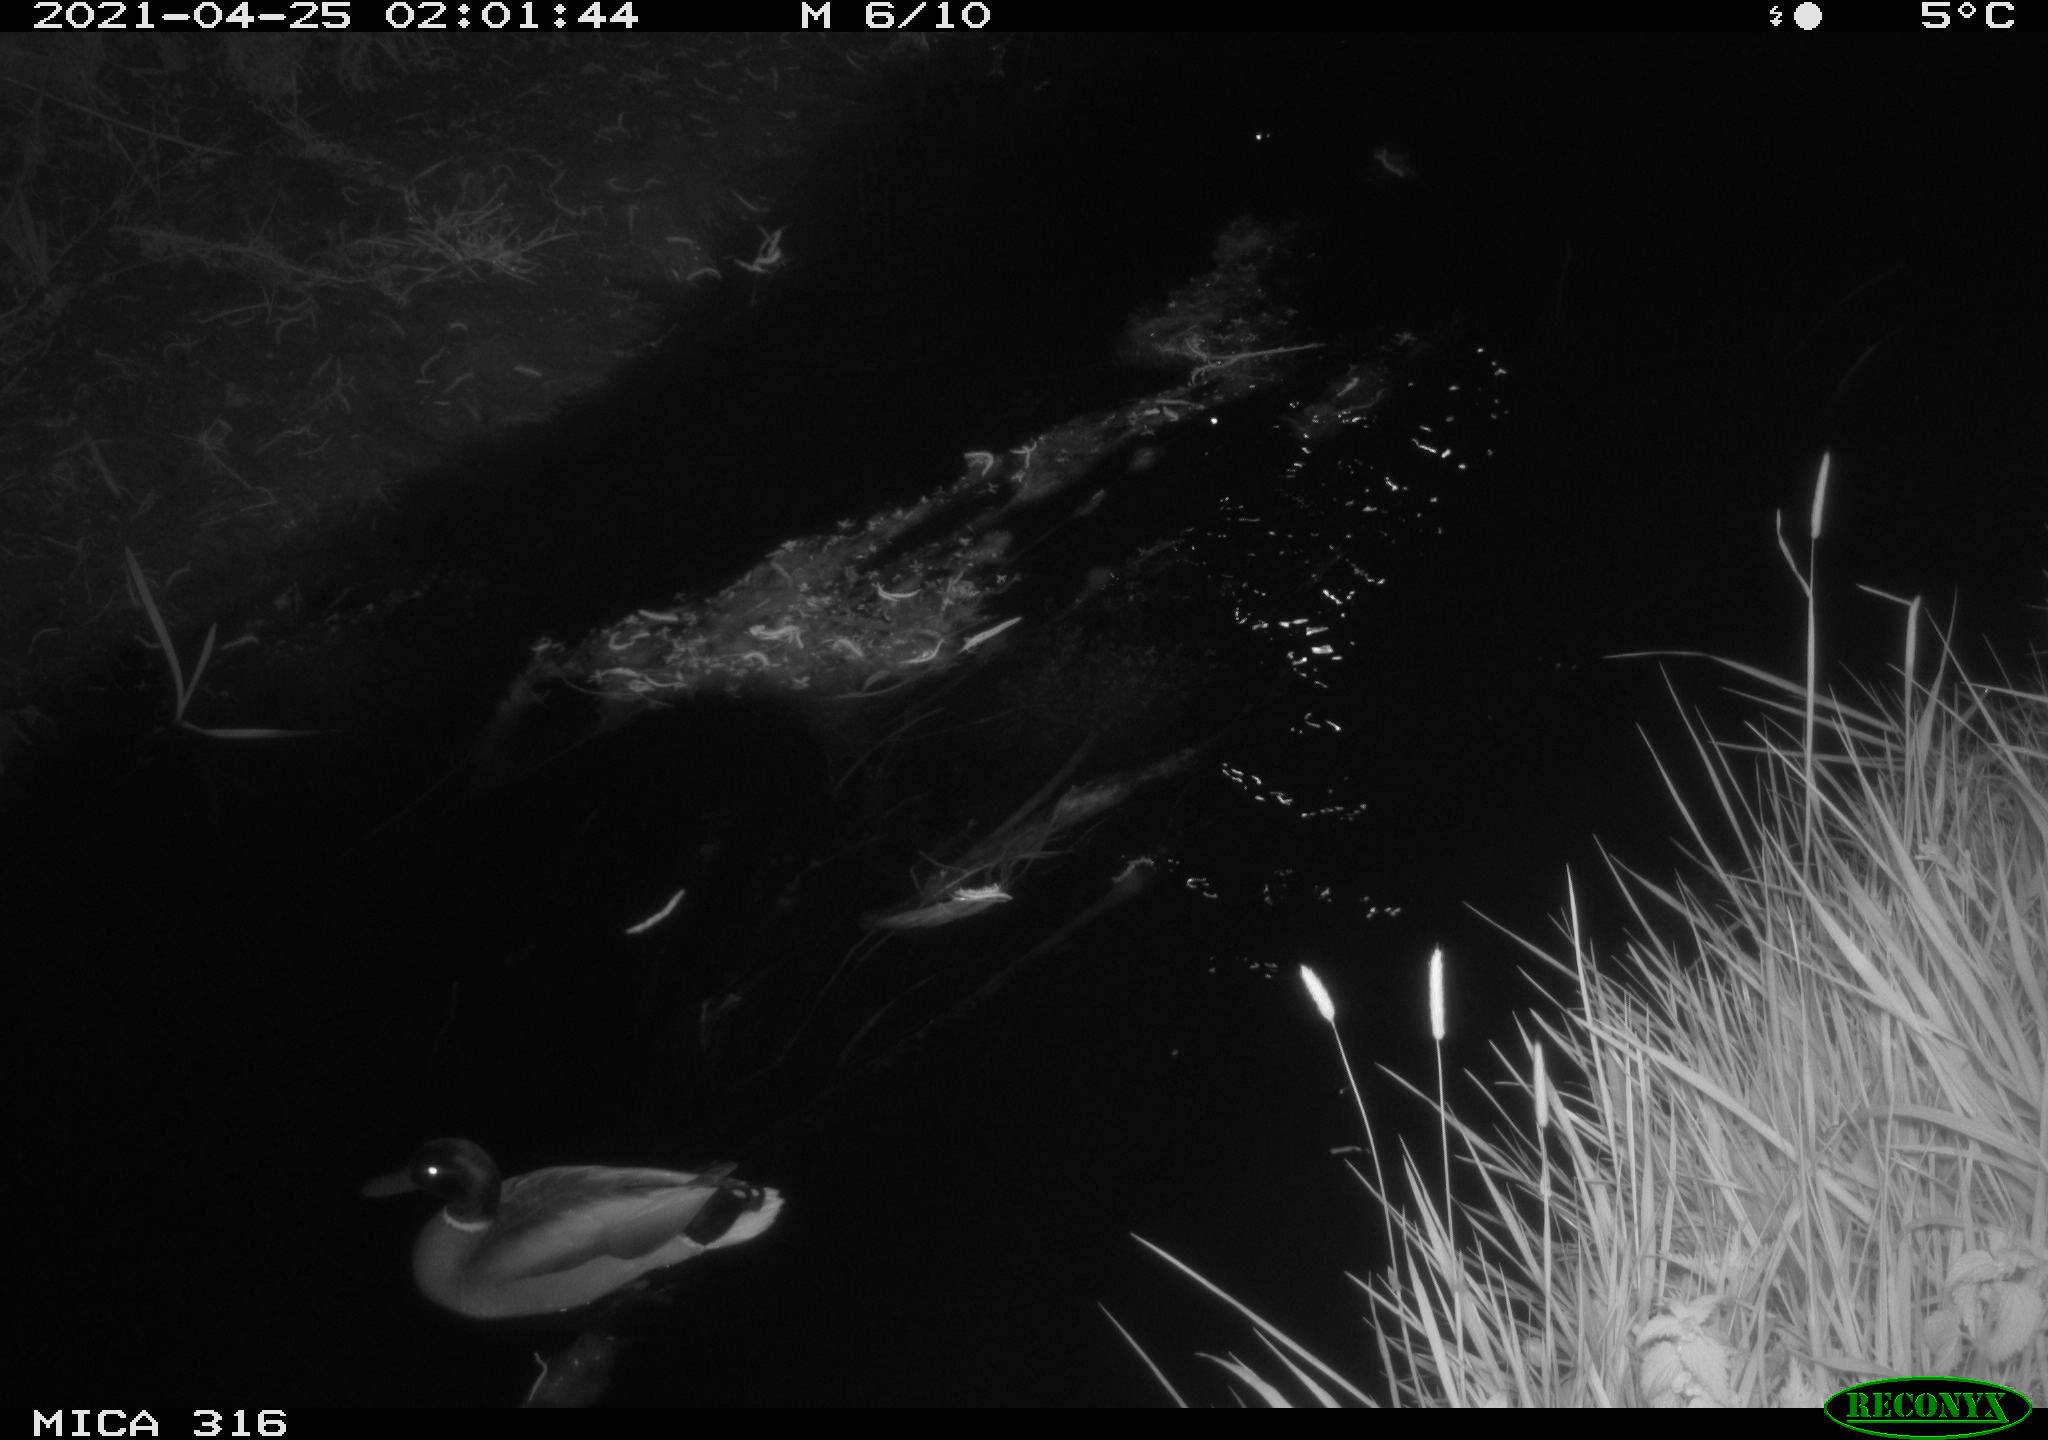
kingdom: Animalia
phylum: Chordata
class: Aves
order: Gruiformes
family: Rallidae
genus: Gallinula
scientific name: Gallinula chloropus
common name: Common moorhen
